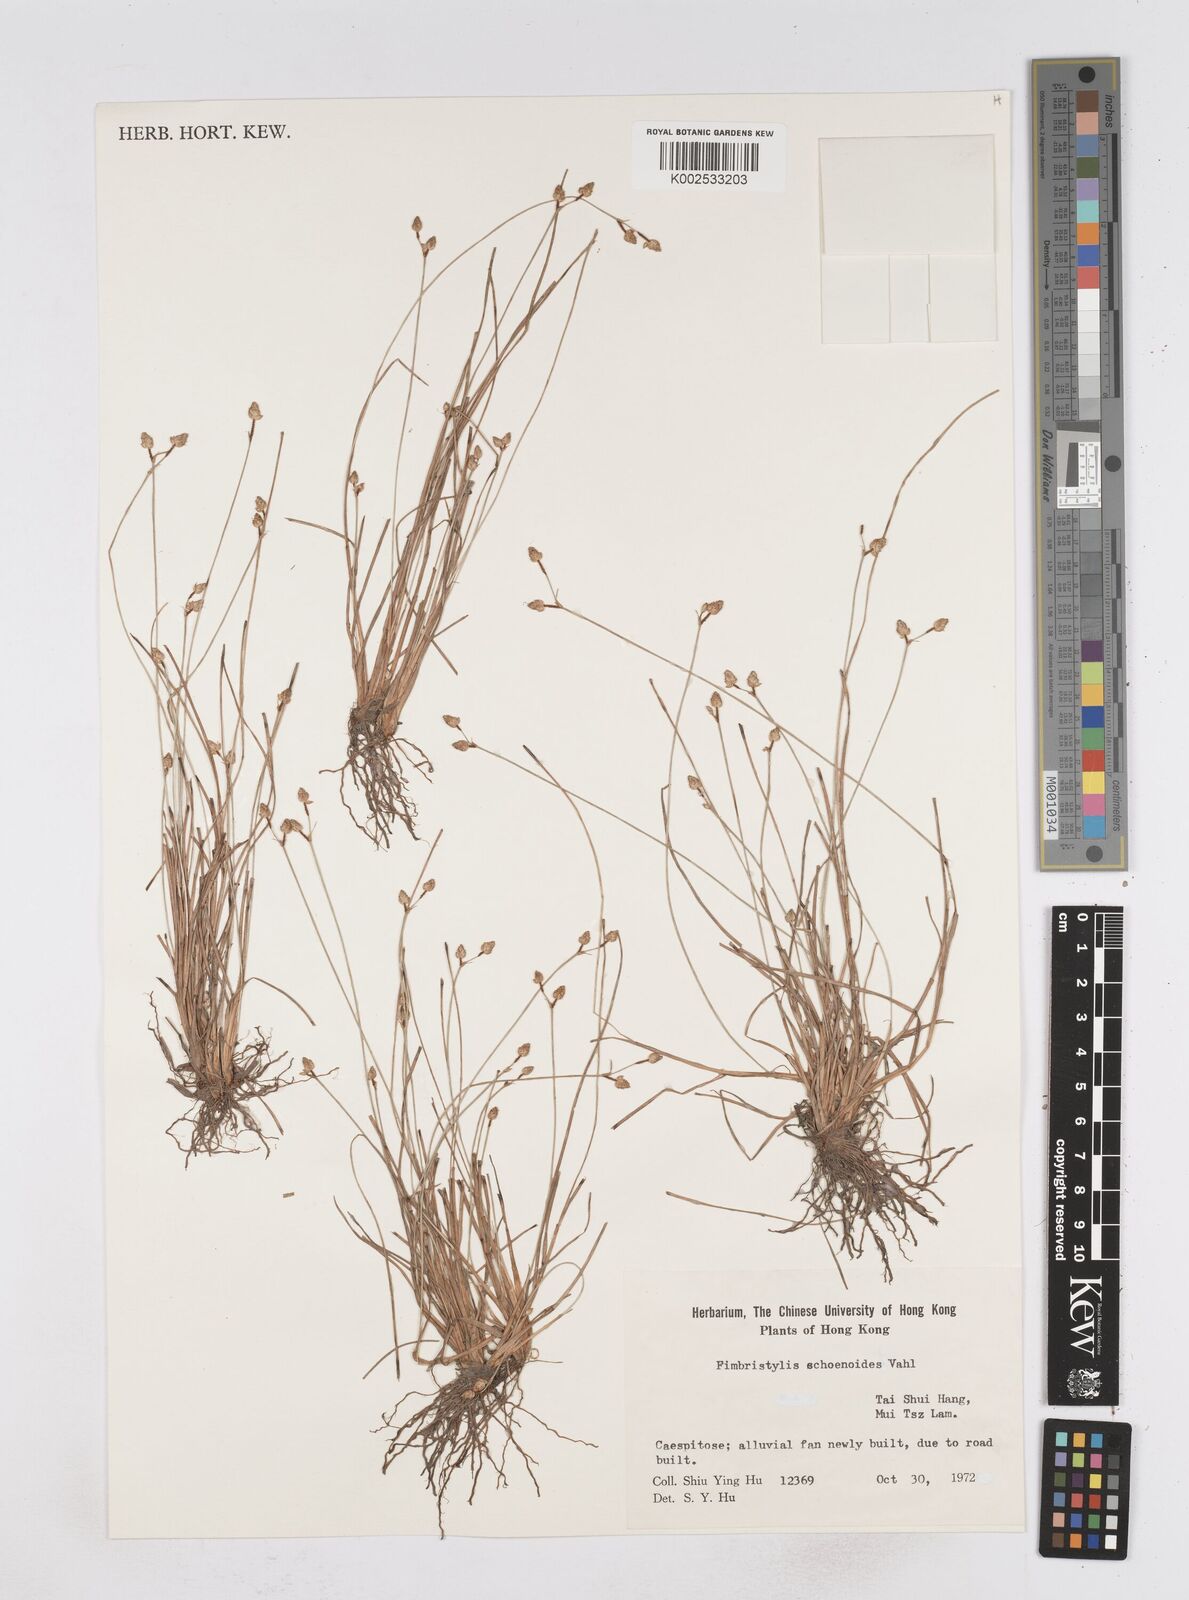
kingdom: Plantae
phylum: Tracheophyta
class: Liliopsida
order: Poales
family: Cyperaceae
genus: Fimbristylis
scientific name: Fimbristylis schoenoides
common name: Ditch fimbry
